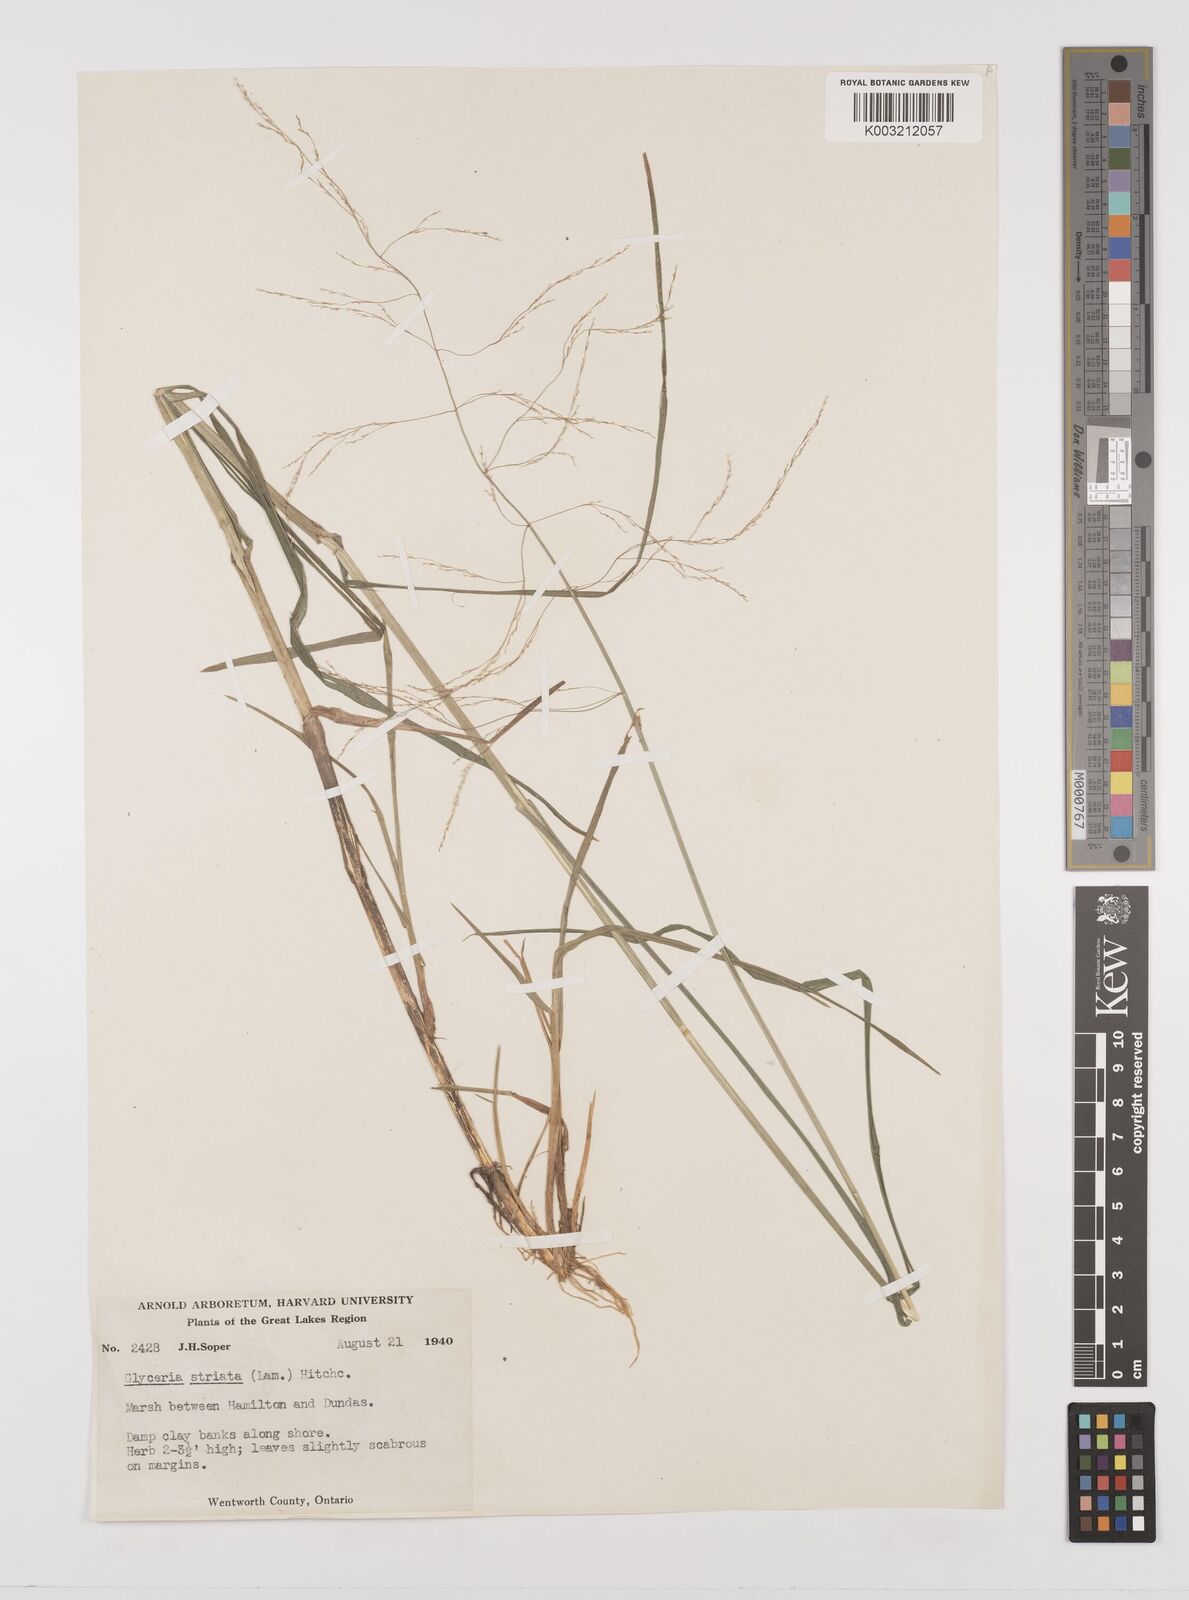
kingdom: Plantae
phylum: Tracheophyta
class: Liliopsida
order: Poales
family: Poaceae
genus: Glyceria
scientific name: Glyceria striata
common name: Fowl manna grass
